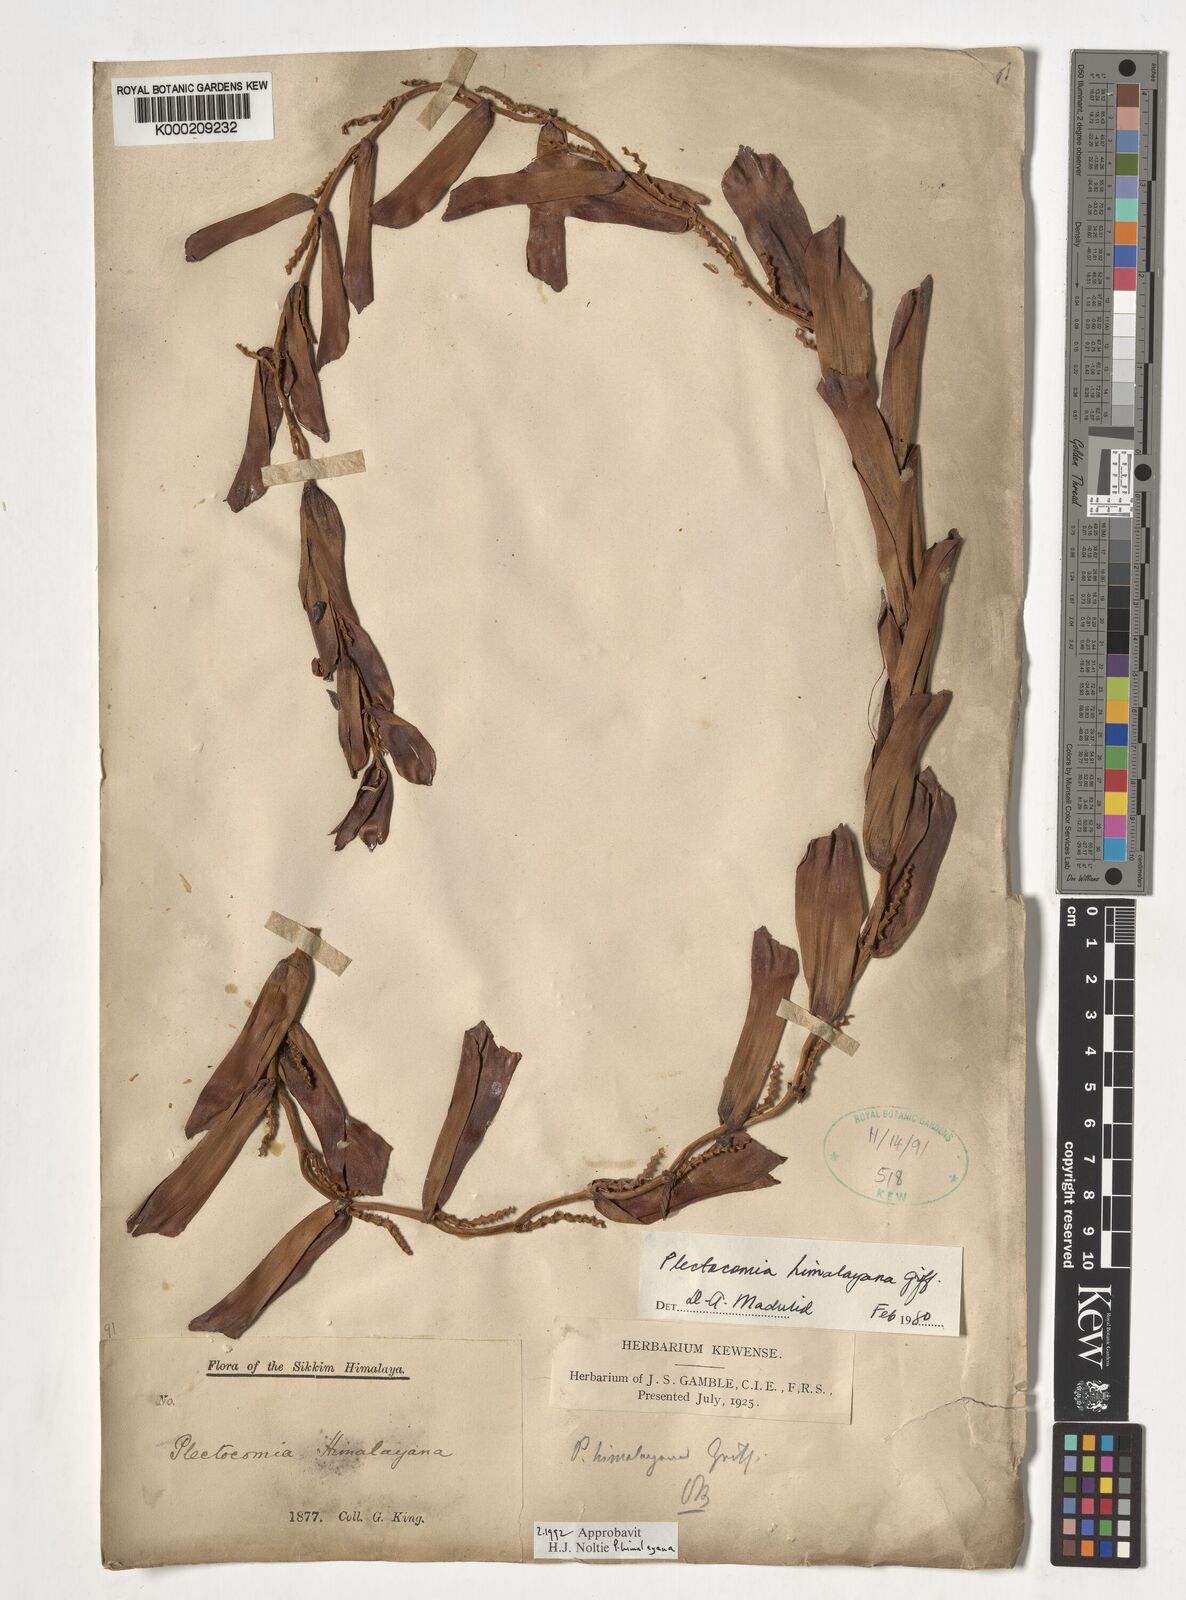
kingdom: Plantae
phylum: Tracheophyta
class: Liliopsida
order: Arecales
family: Arecaceae
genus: Plectocomia
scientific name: Plectocomia himalayana
